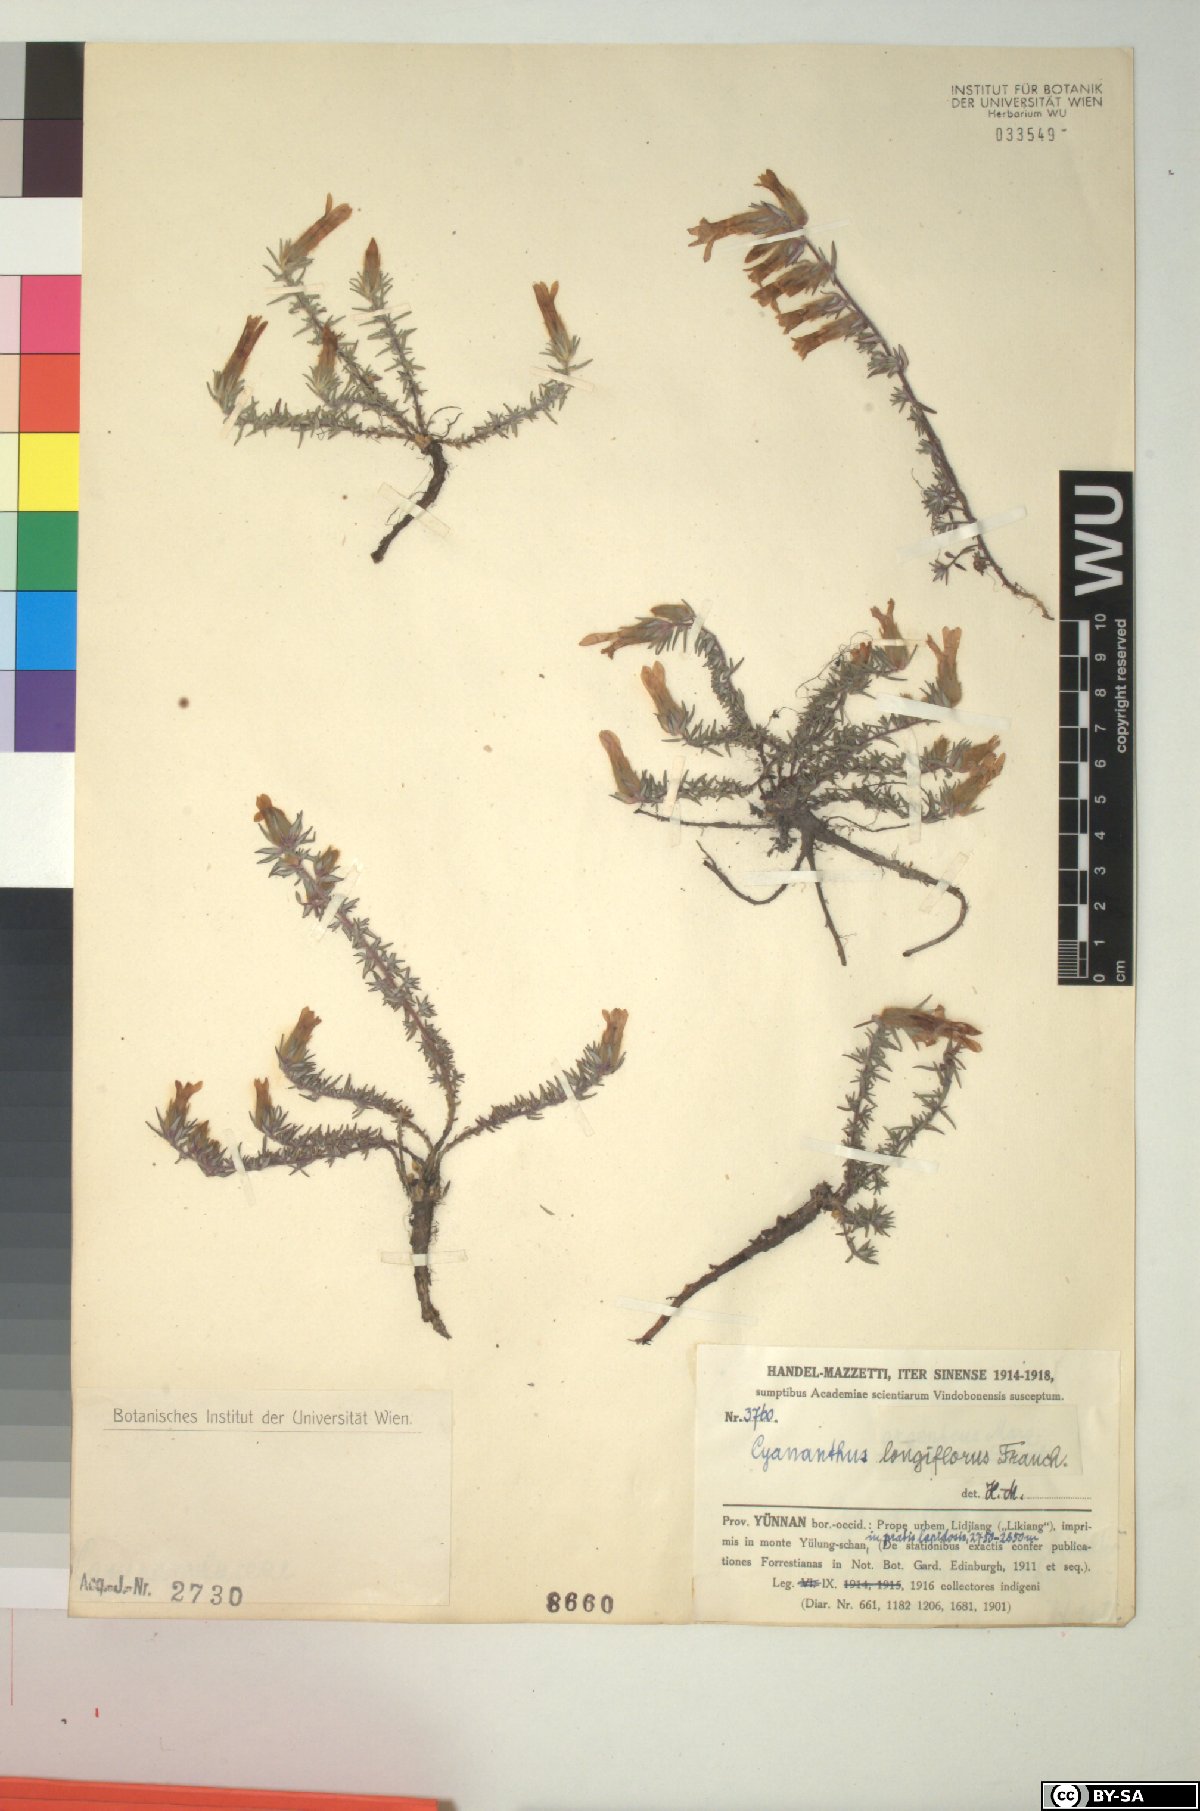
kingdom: Plantae
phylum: Tracheophyta
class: Magnoliopsida
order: Asterales
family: Campanulaceae
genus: Cyananthus
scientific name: Cyananthus longiflorus
